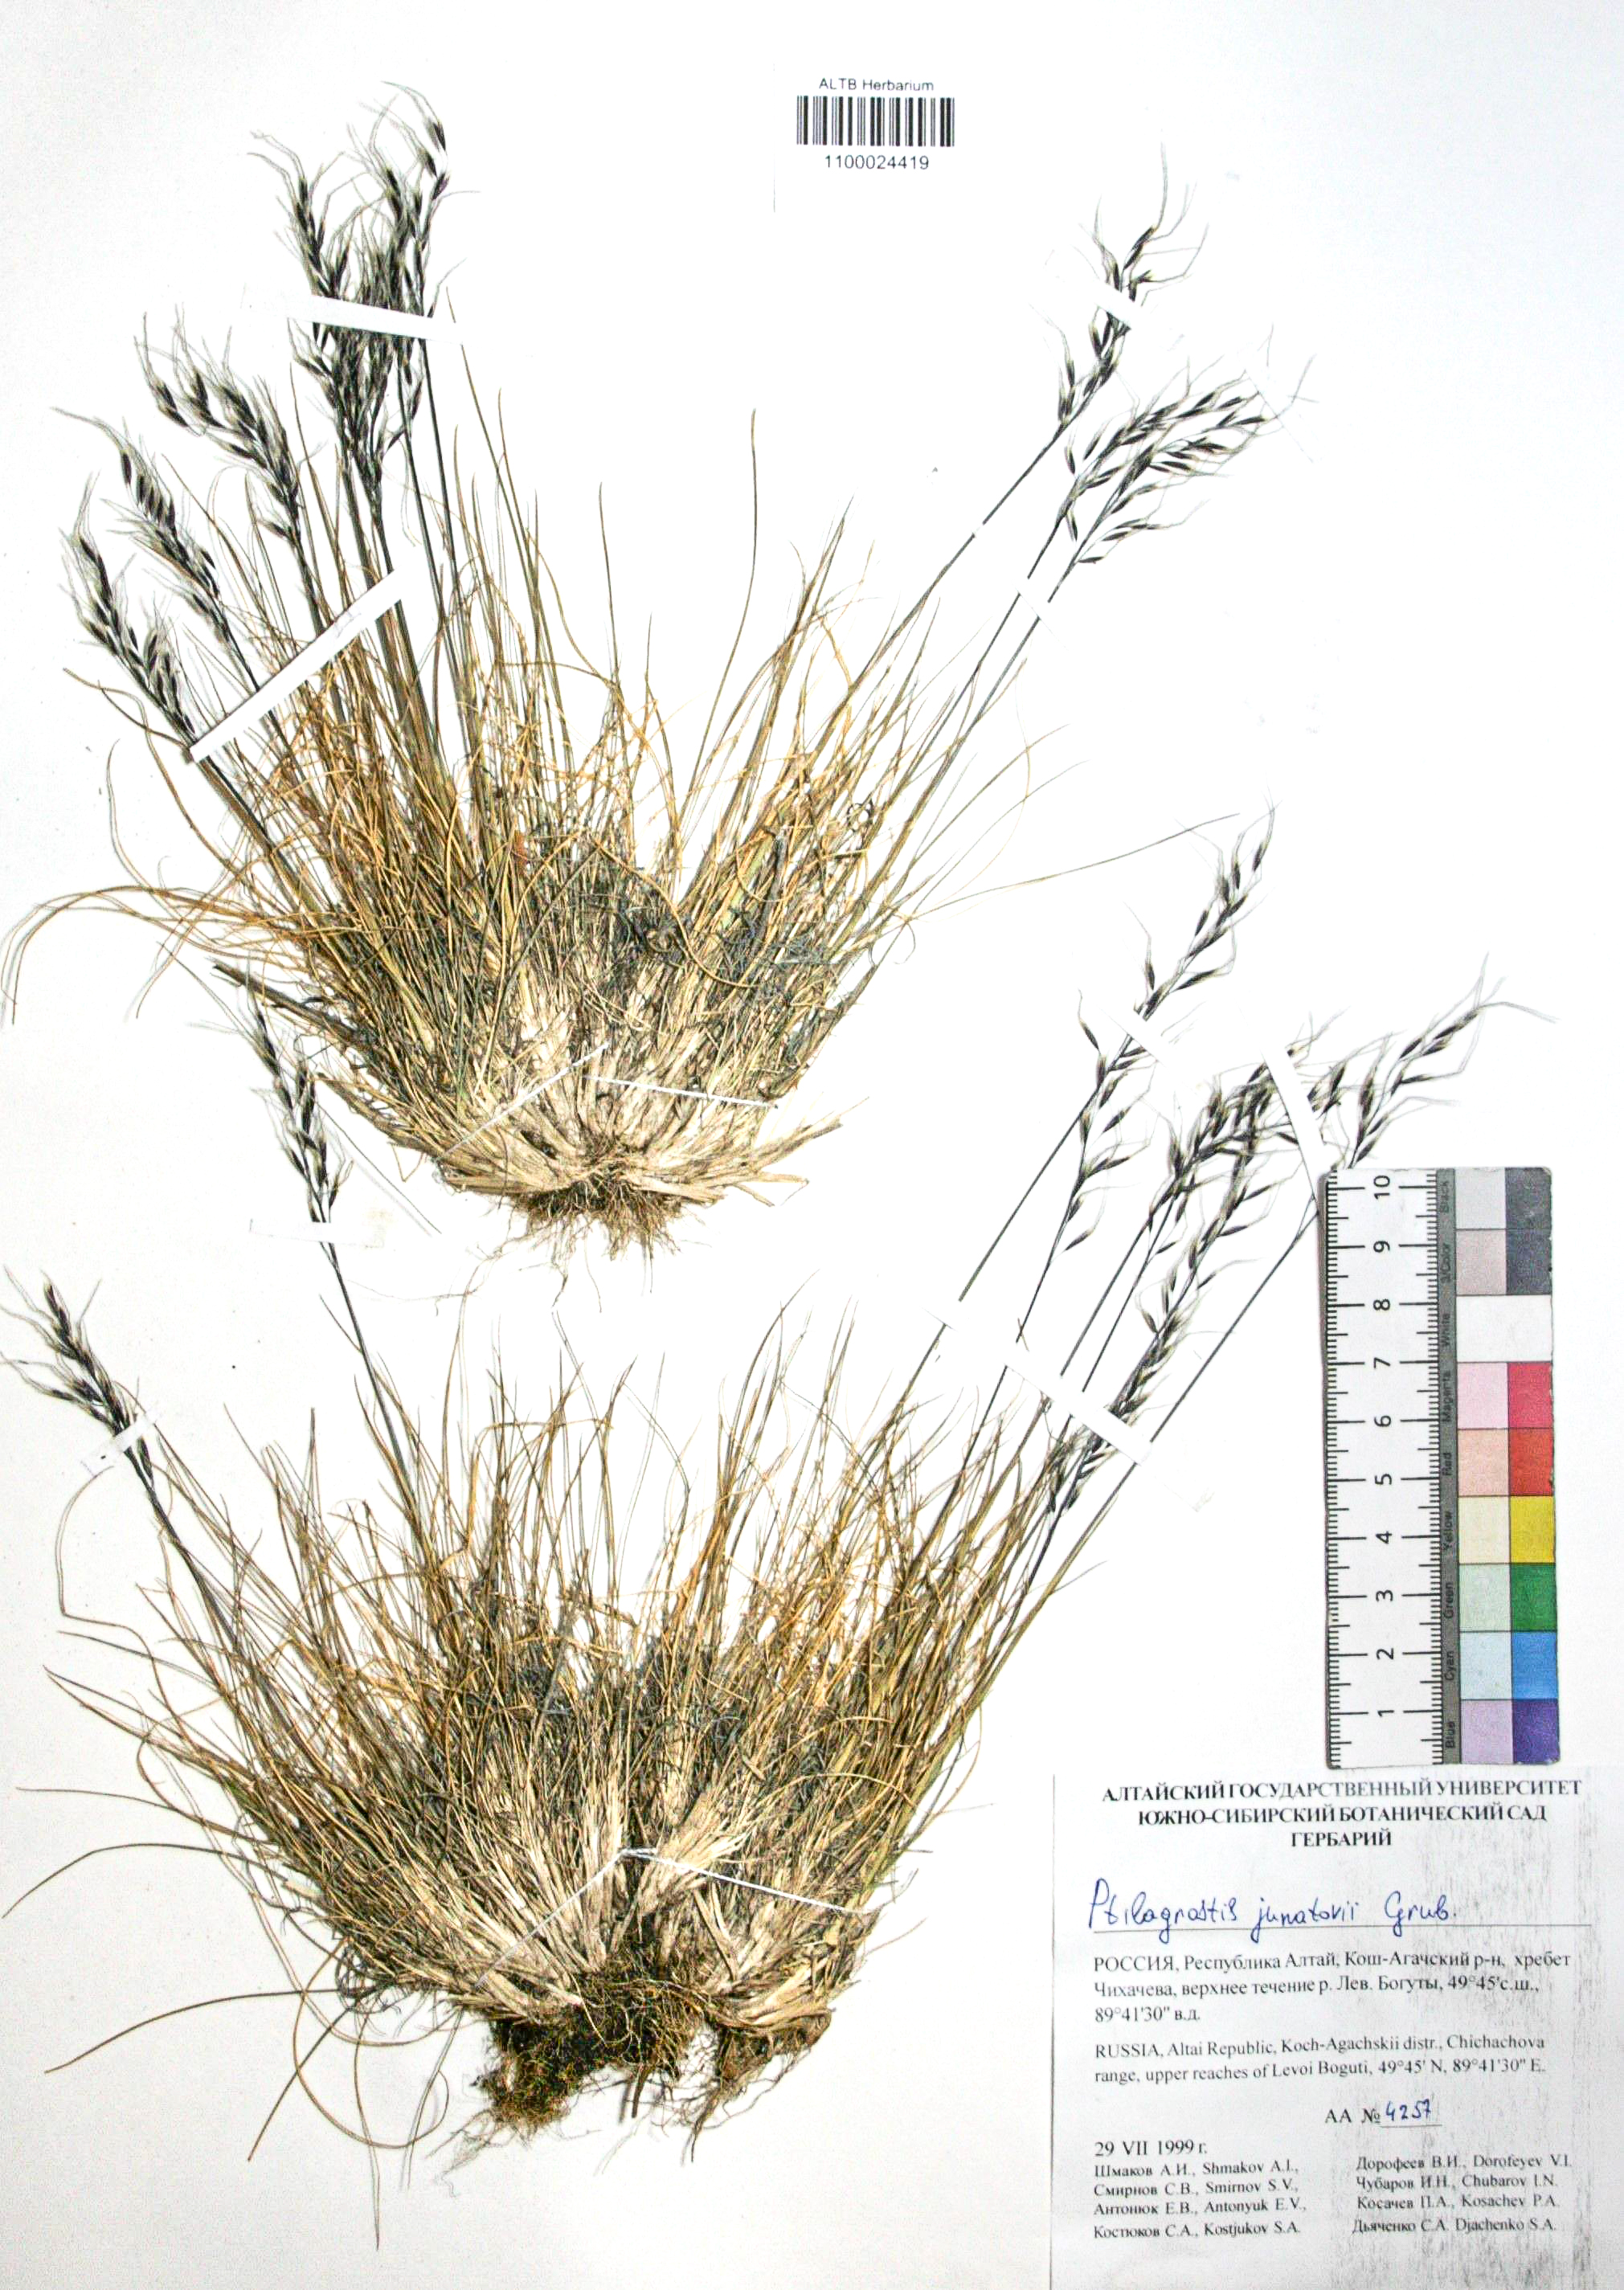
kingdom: Plantae
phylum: Tracheophyta
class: Liliopsida
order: Poales
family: Poaceae
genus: Ptilagrostis
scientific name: Ptilagrostis junatovii
